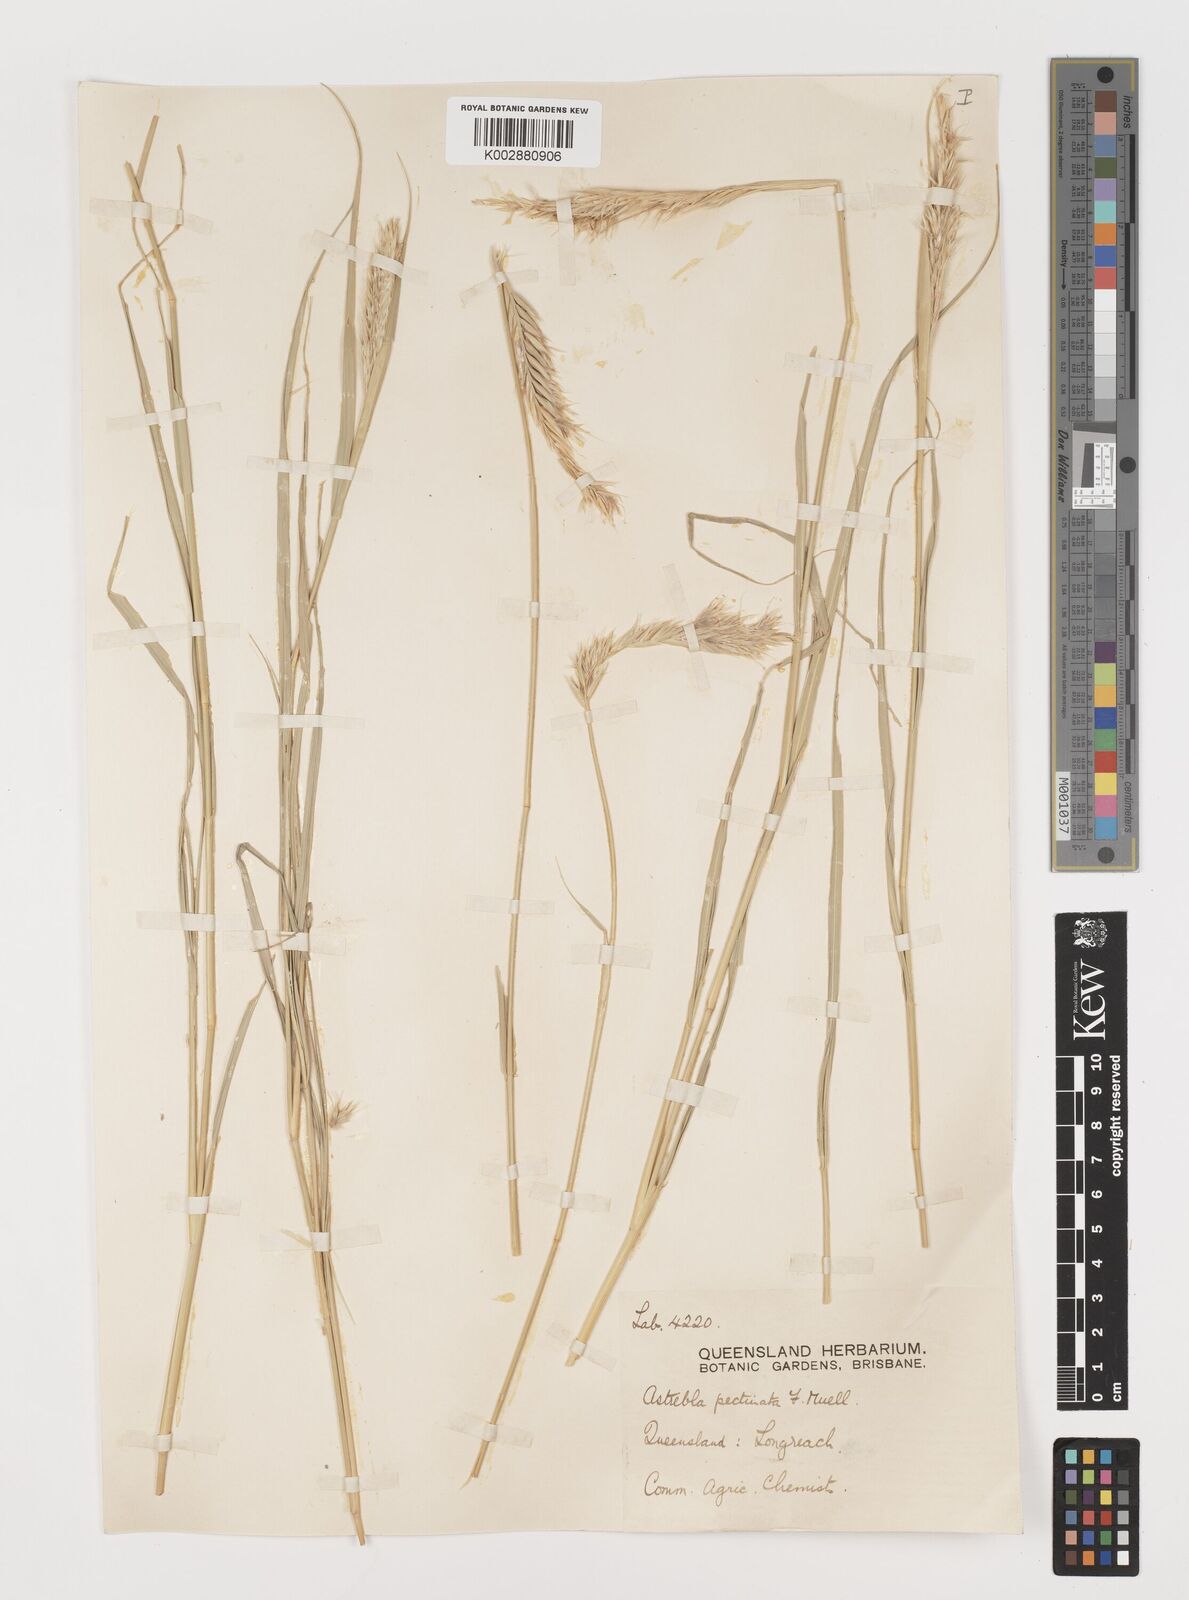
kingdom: Plantae
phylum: Tracheophyta
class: Liliopsida
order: Poales
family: Poaceae
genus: Astrebla
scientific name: Astrebla pectinata
